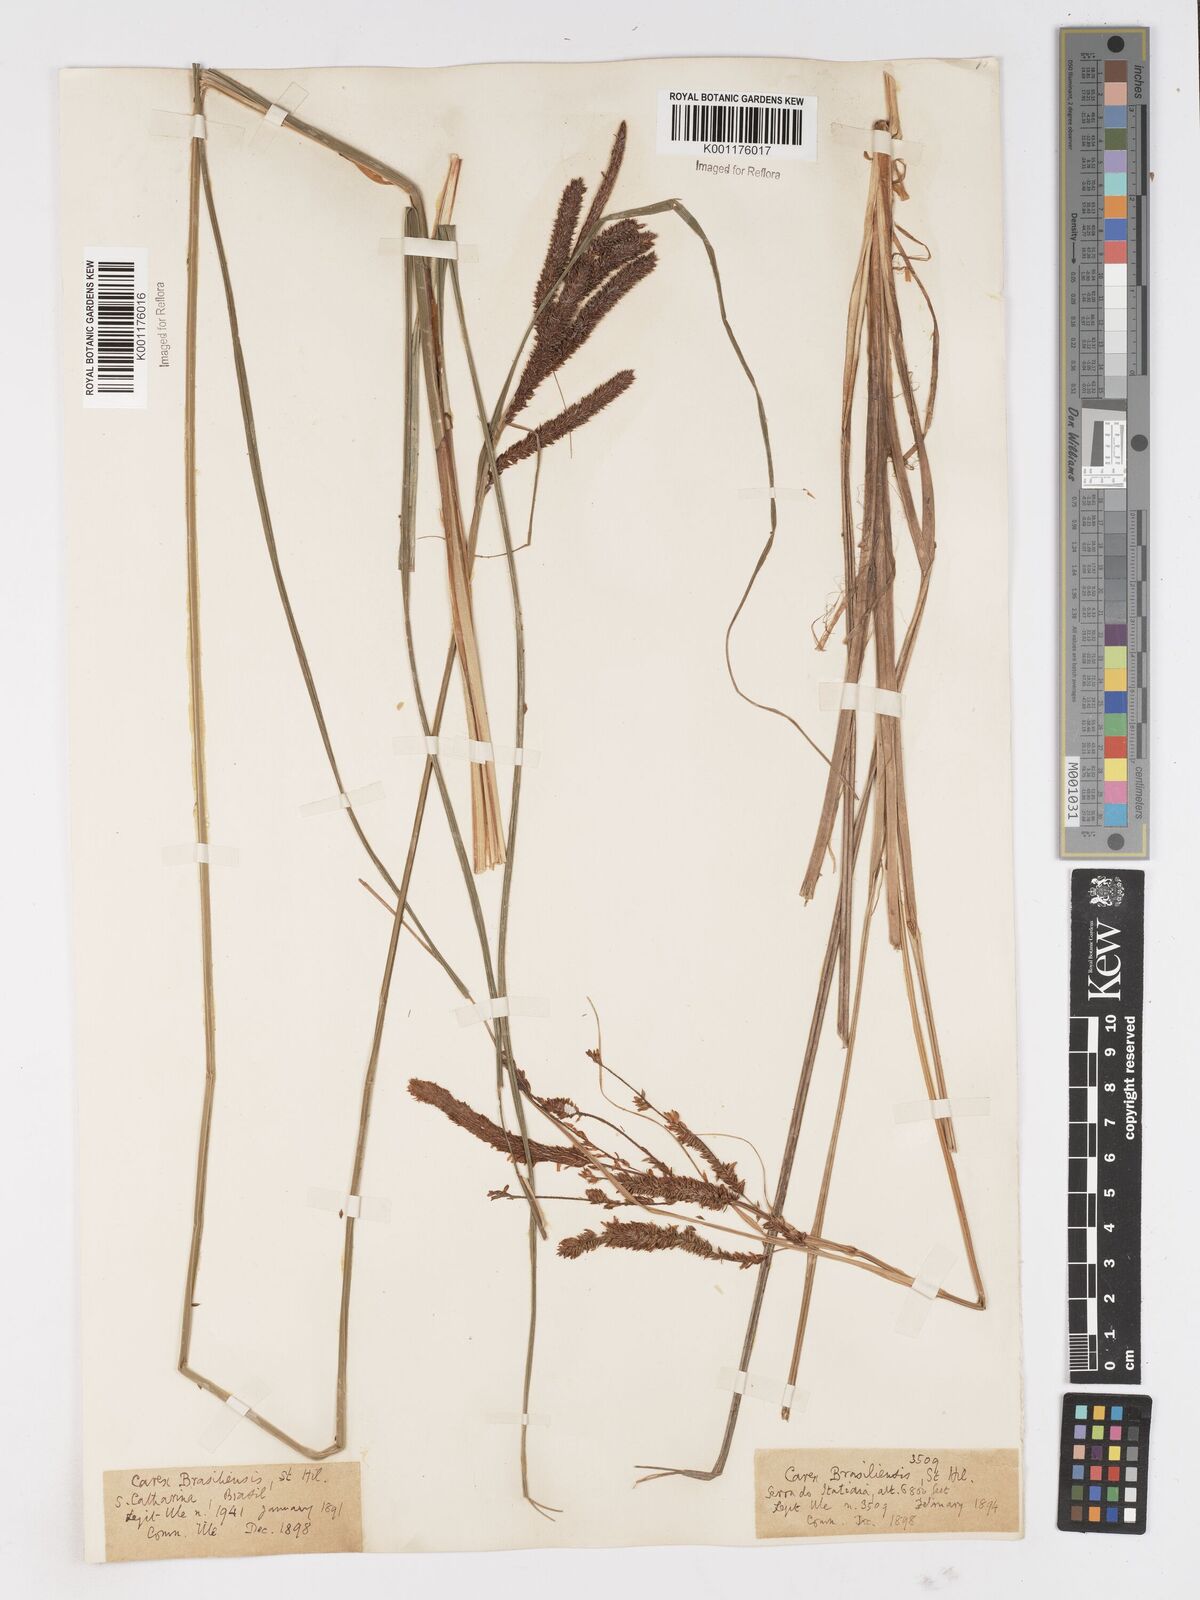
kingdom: Plantae
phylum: Tracheophyta
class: Liliopsida
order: Poales
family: Cyperaceae
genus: Carex
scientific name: Carex brasiliensis
